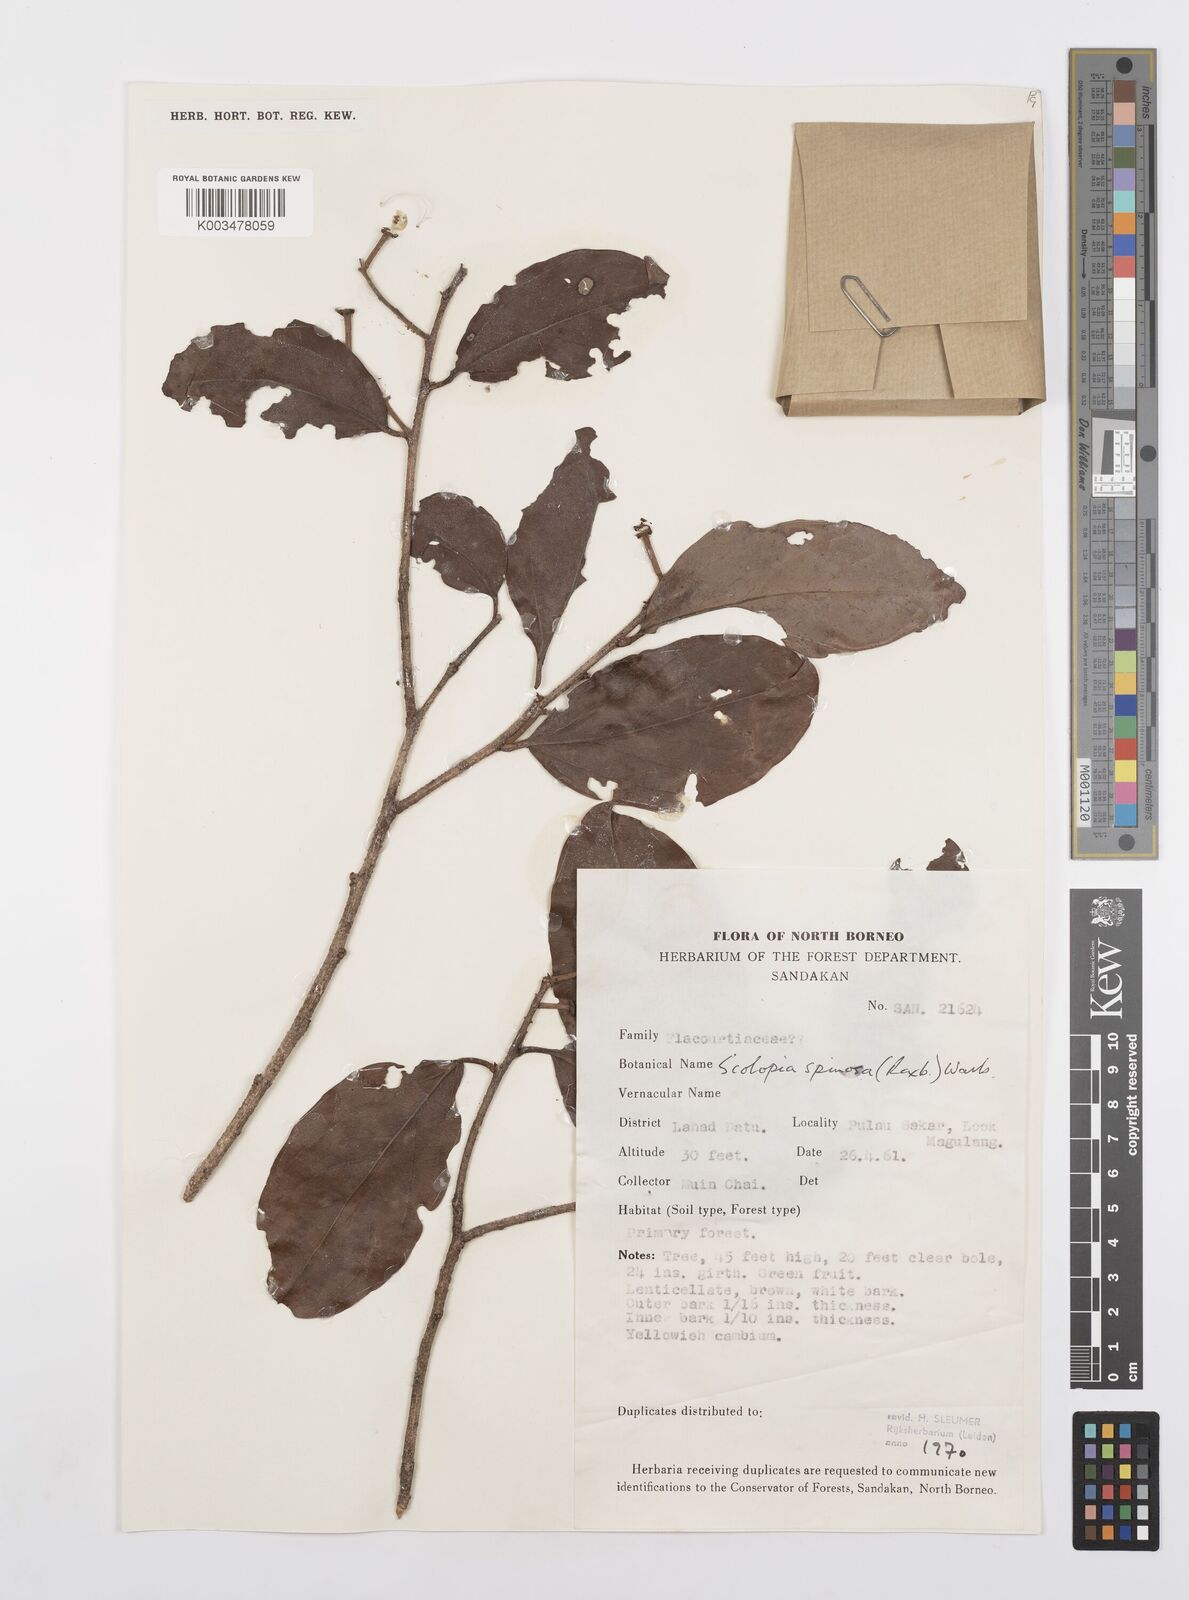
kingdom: Plantae
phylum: Tracheophyta
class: Magnoliopsida
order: Malpighiales
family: Salicaceae
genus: Scolopia
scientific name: Scolopia spinosa
